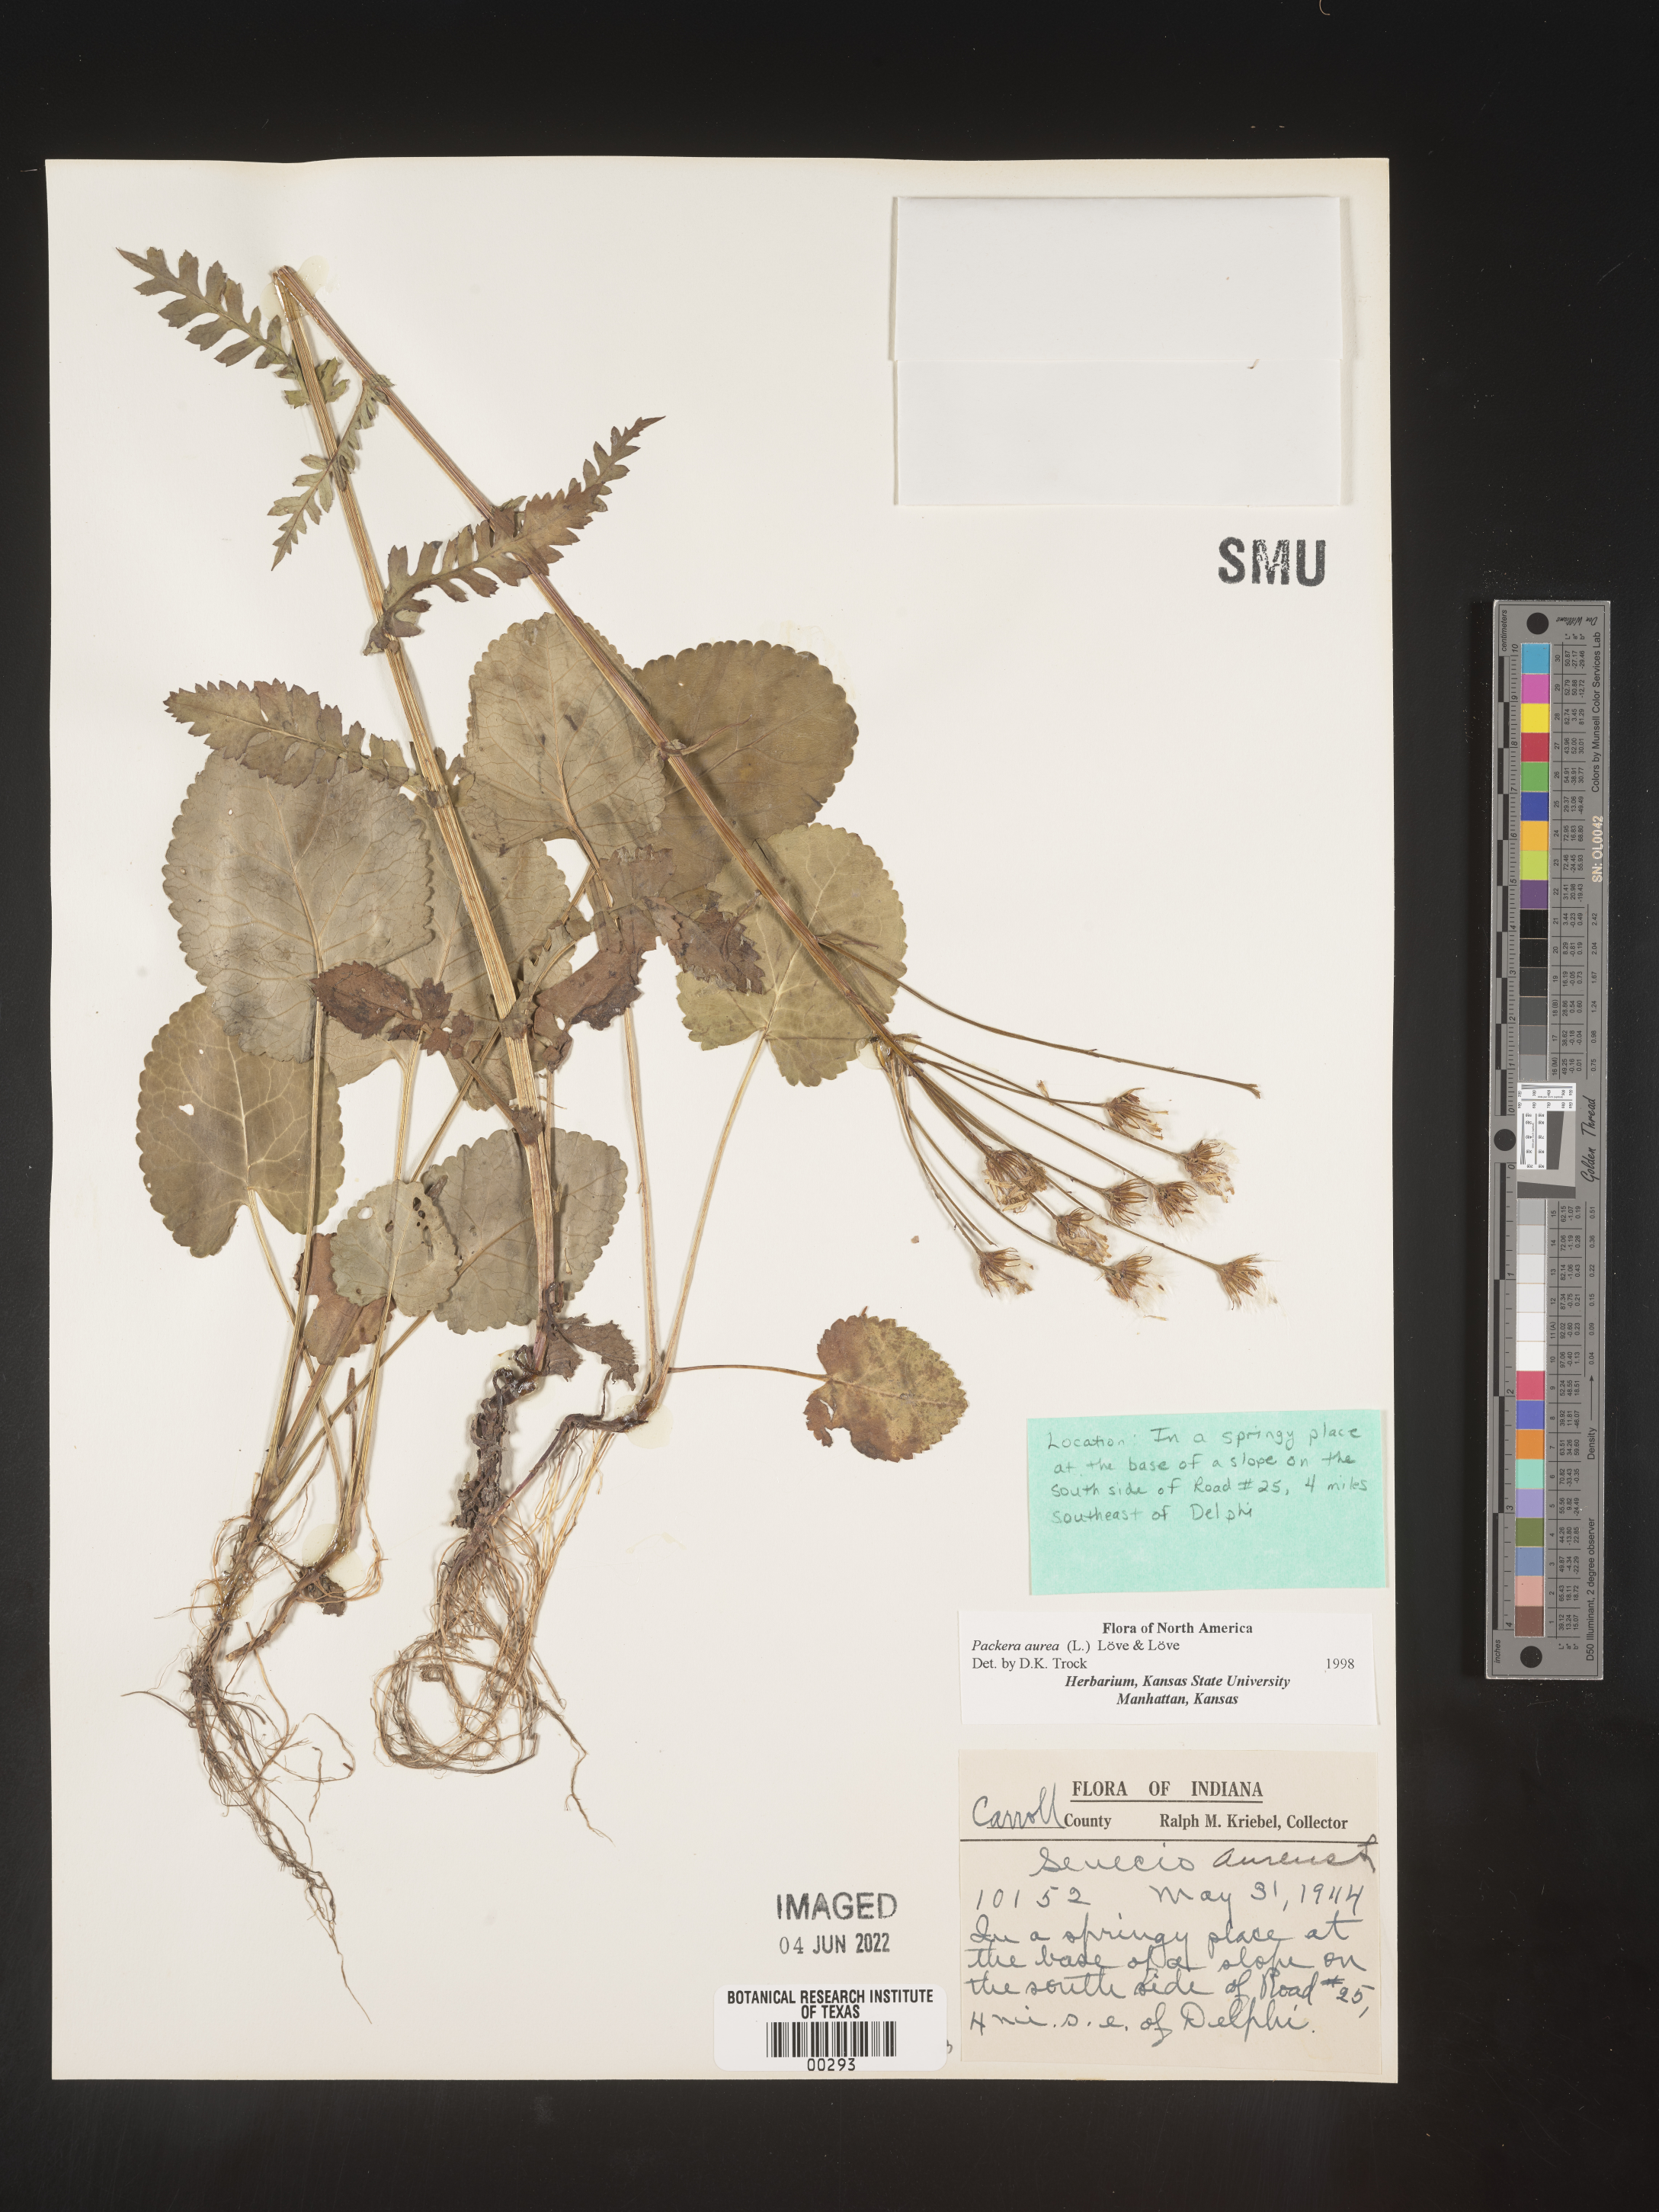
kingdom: Plantae
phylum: Tracheophyta
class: Magnoliopsida
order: Asterales
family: Asteraceae
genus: Packera
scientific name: Packera aurea
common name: Golden groundsel
